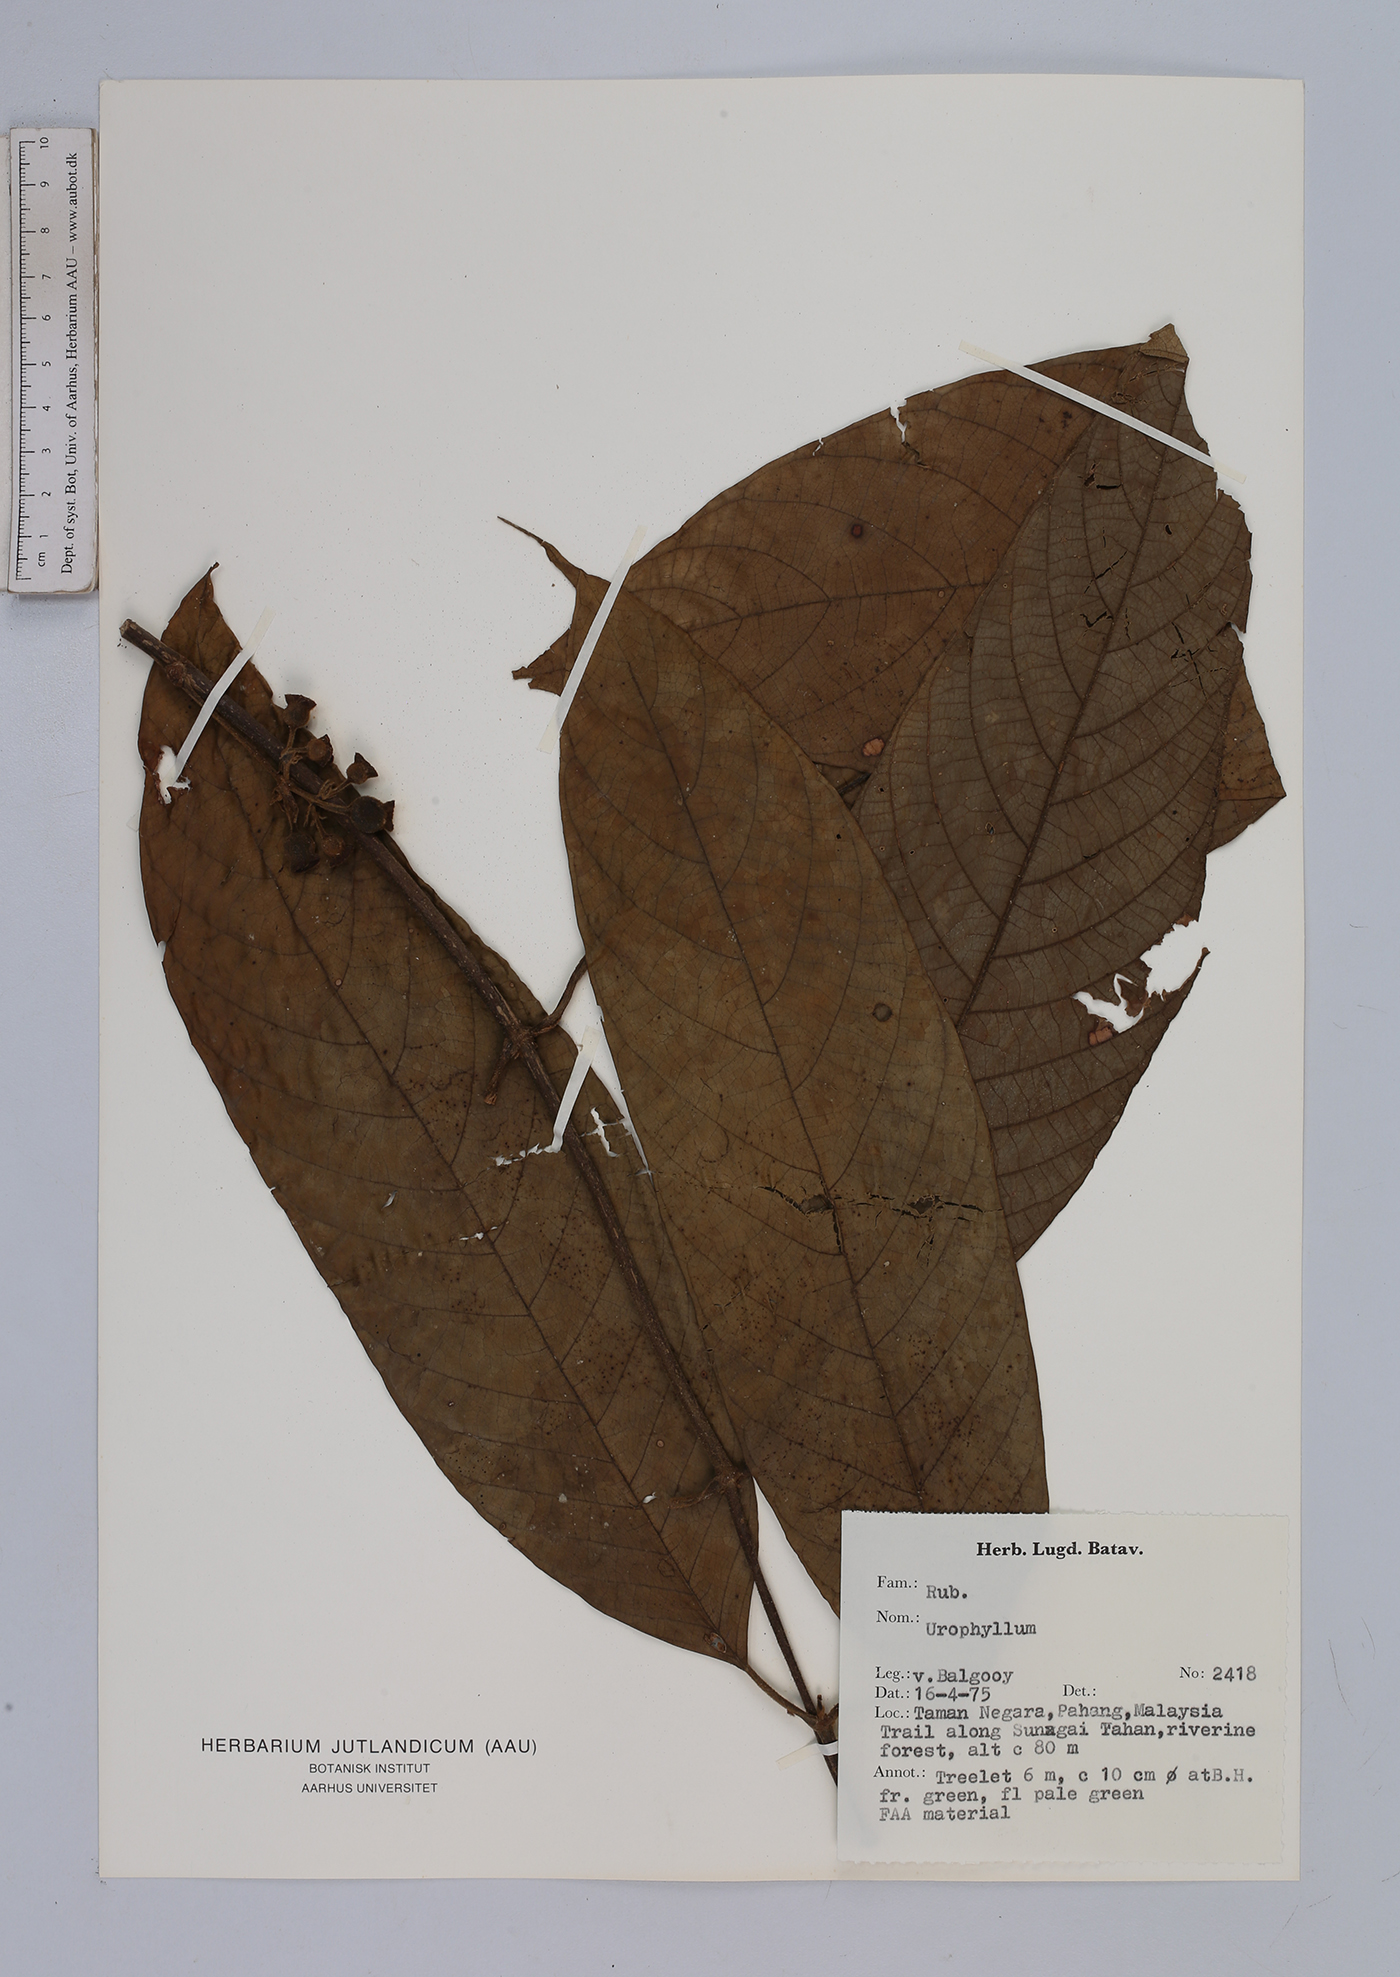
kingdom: Plantae
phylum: Tracheophyta
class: Magnoliopsida
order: Gentianales
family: Rubiaceae
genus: Urophyllum
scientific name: Urophyllum
